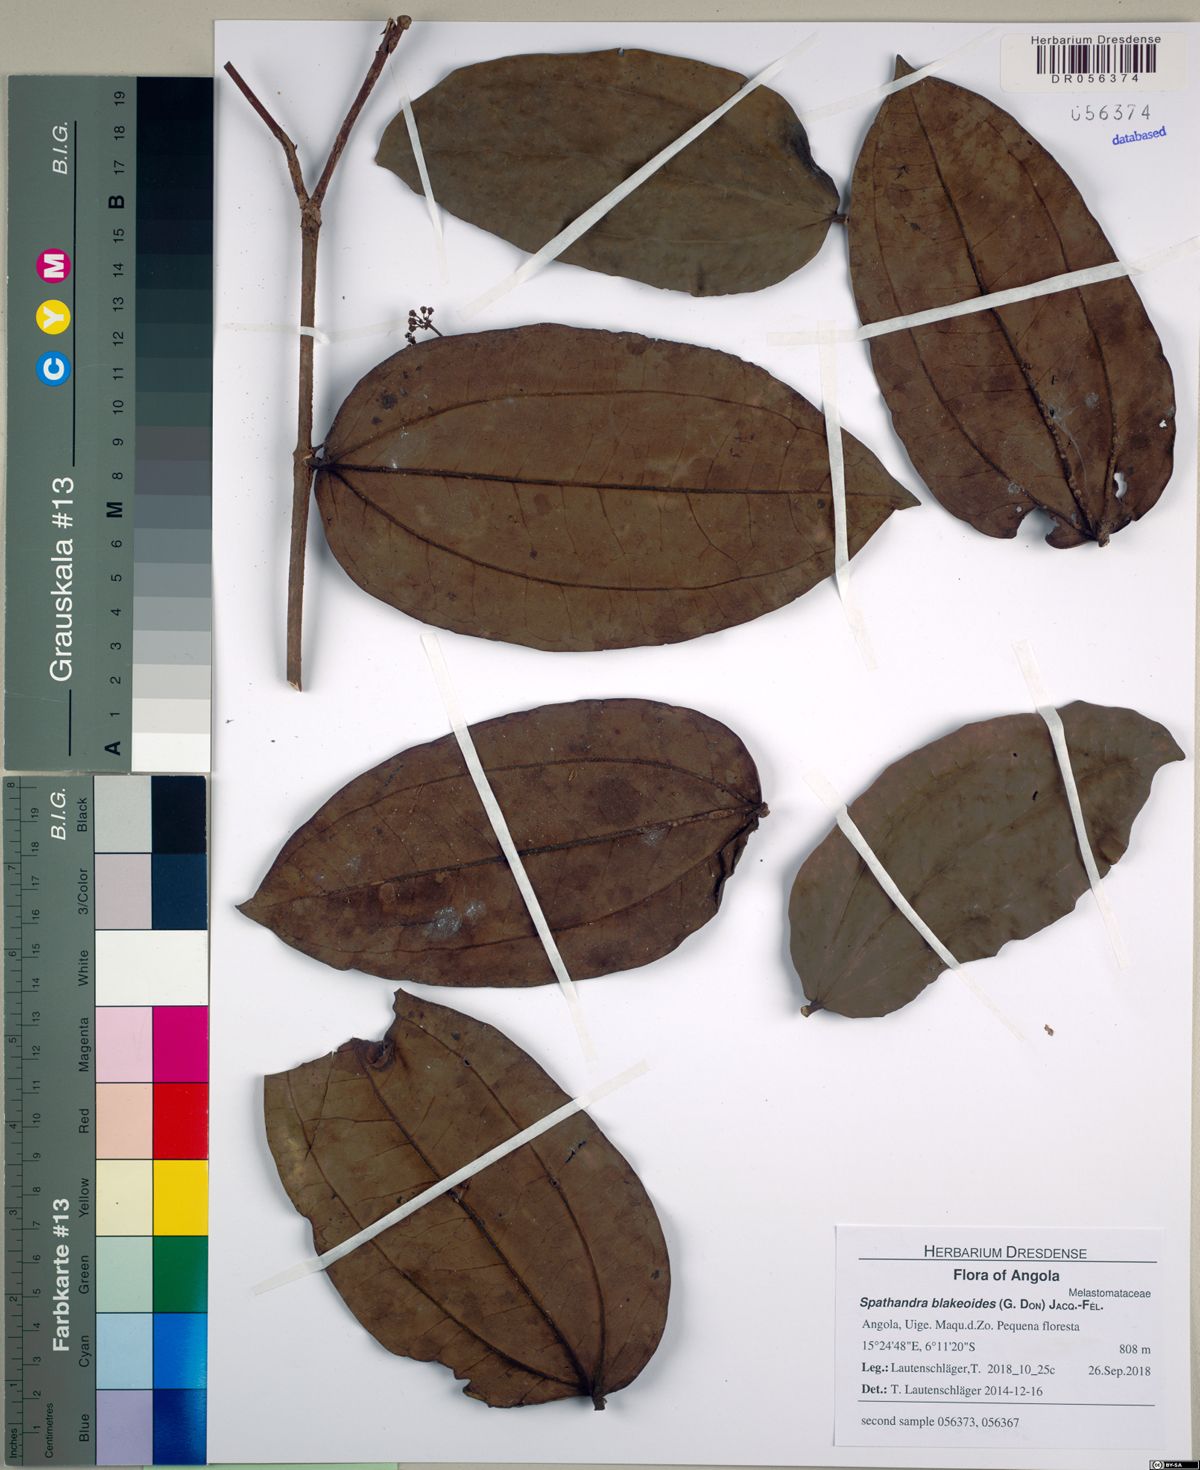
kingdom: Plantae
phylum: Tracheophyta
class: Magnoliopsida
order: Myrtales
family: Melastomataceae
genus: Spathandra
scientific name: Spathandra blakeoides
